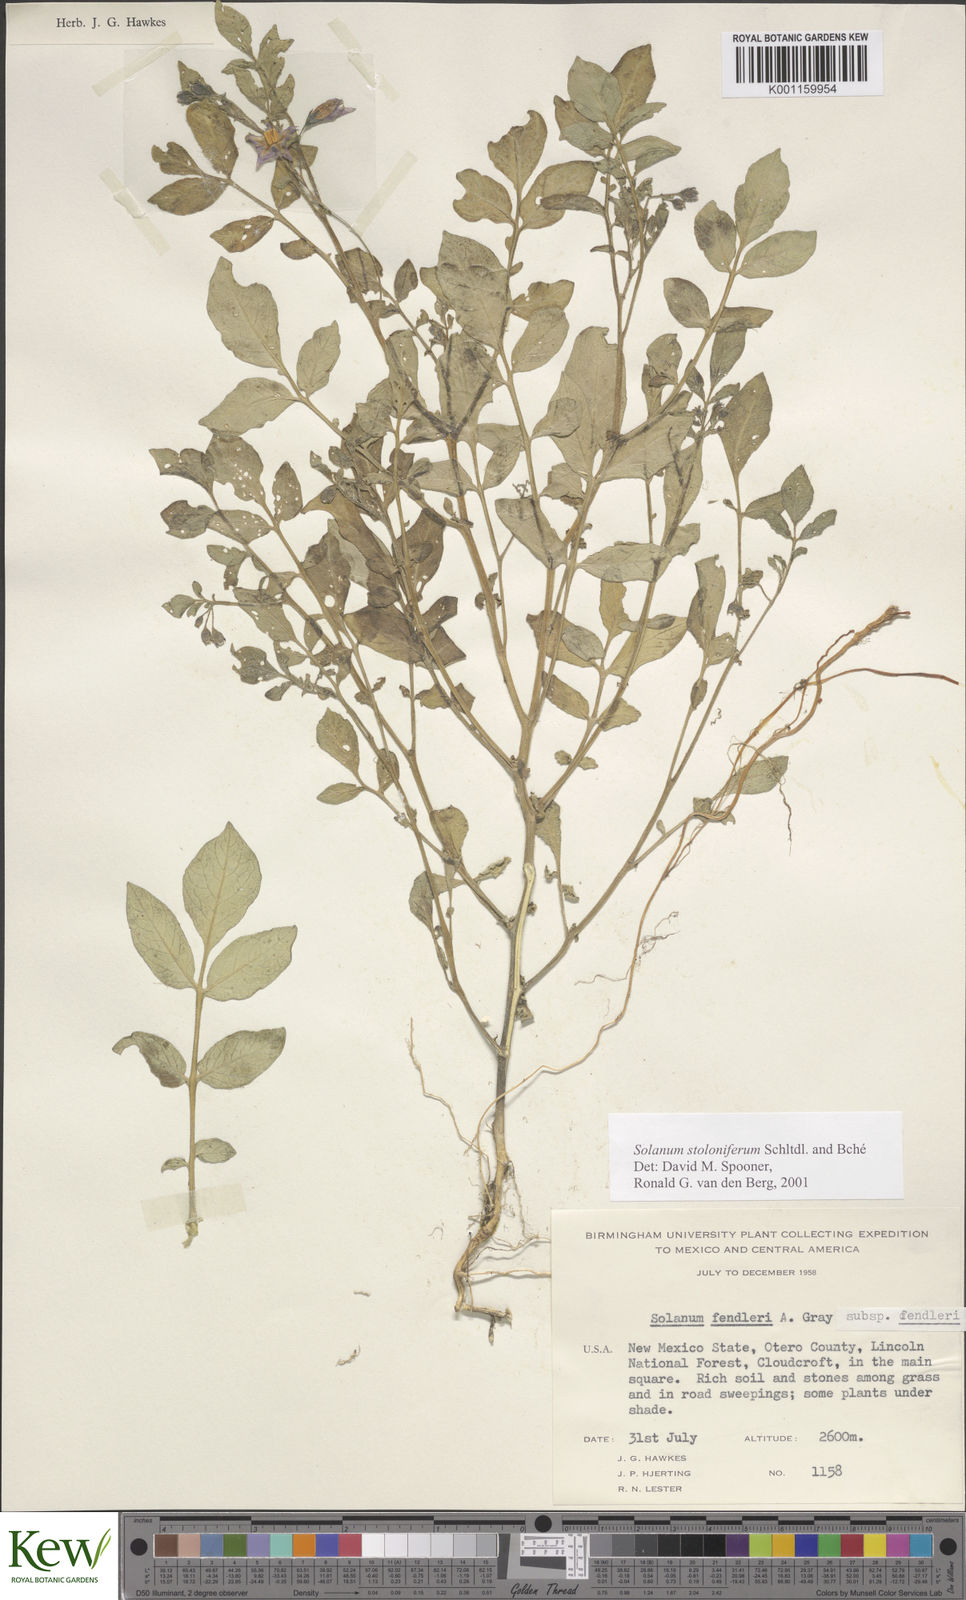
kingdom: Plantae
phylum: Tracheophyta
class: Magnoliopsida
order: Solanales
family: Solanaceae
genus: Solanum
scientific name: Solanum stoloniferum
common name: Fendler's nighshade
